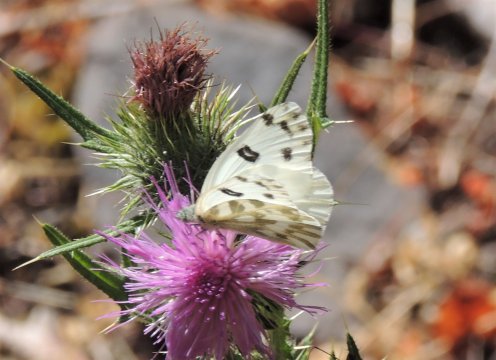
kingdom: Animalia
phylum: Arthropoda
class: Insecta
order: Lepidoptera
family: Pieridae
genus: Pontia
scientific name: Pontia beckerii
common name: Becker's White
